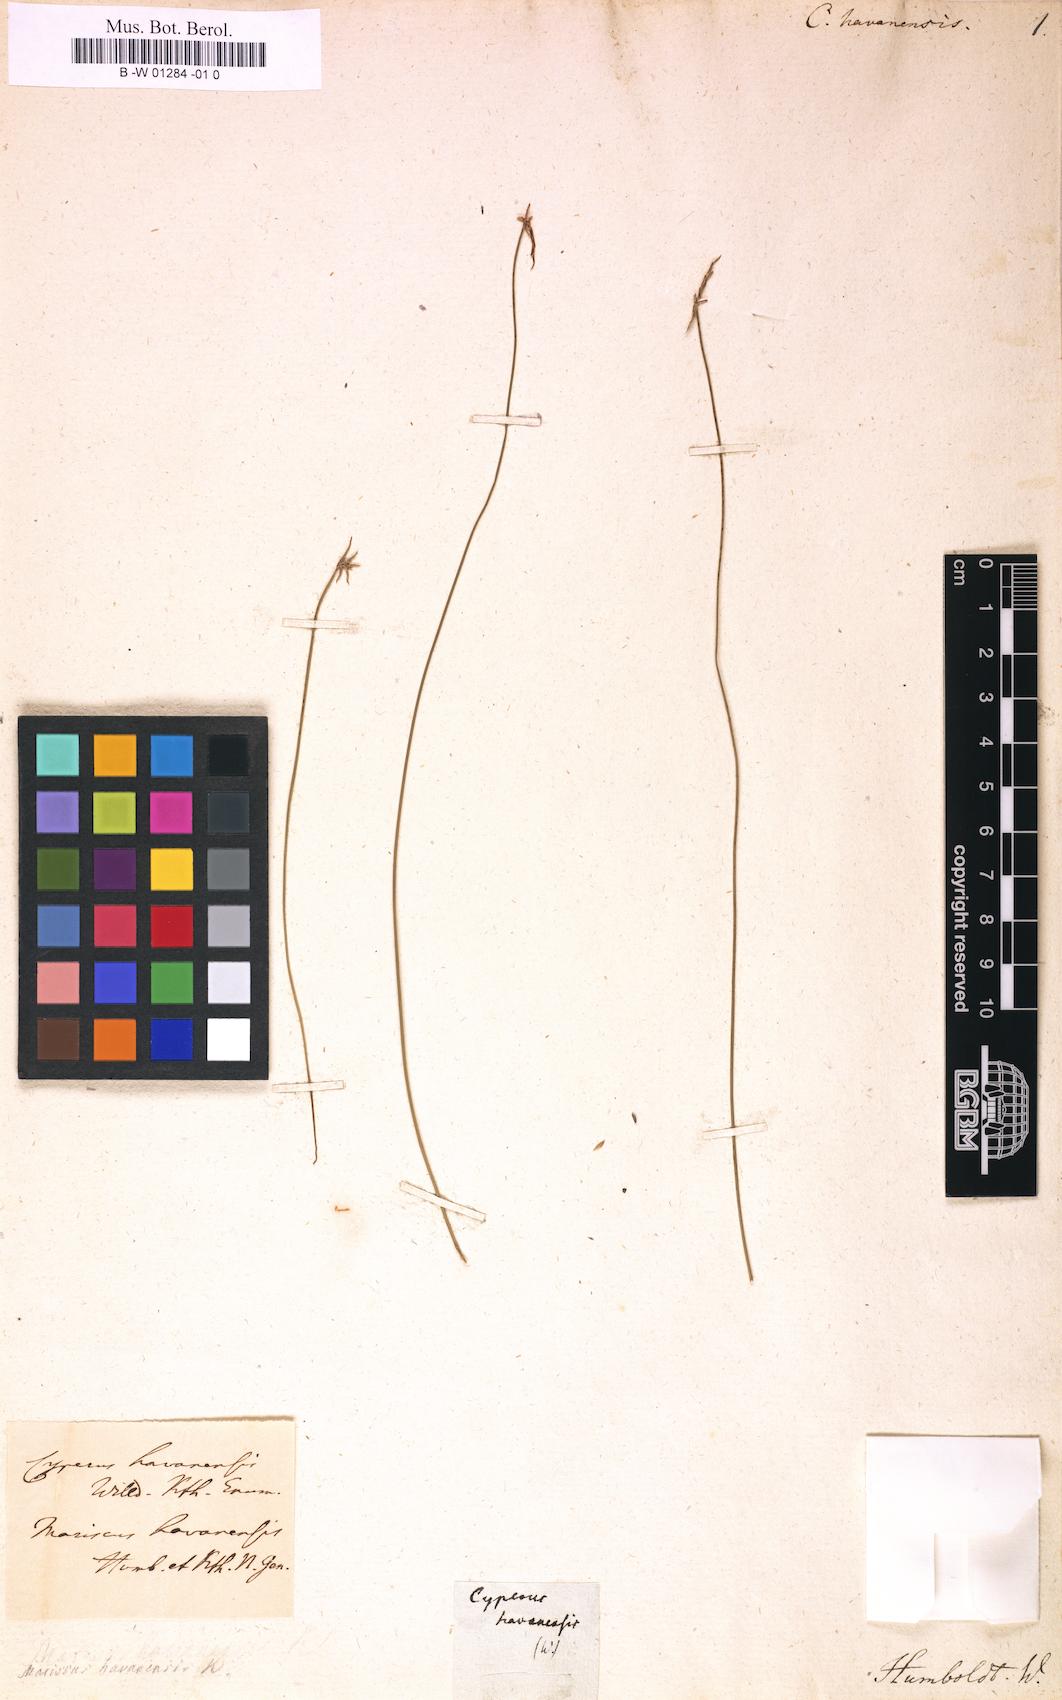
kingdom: Plantae
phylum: Tracheophyta
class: Liliopsida
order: Poales
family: Cyperaceae
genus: Cyperus
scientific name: Cyperus filiformis
